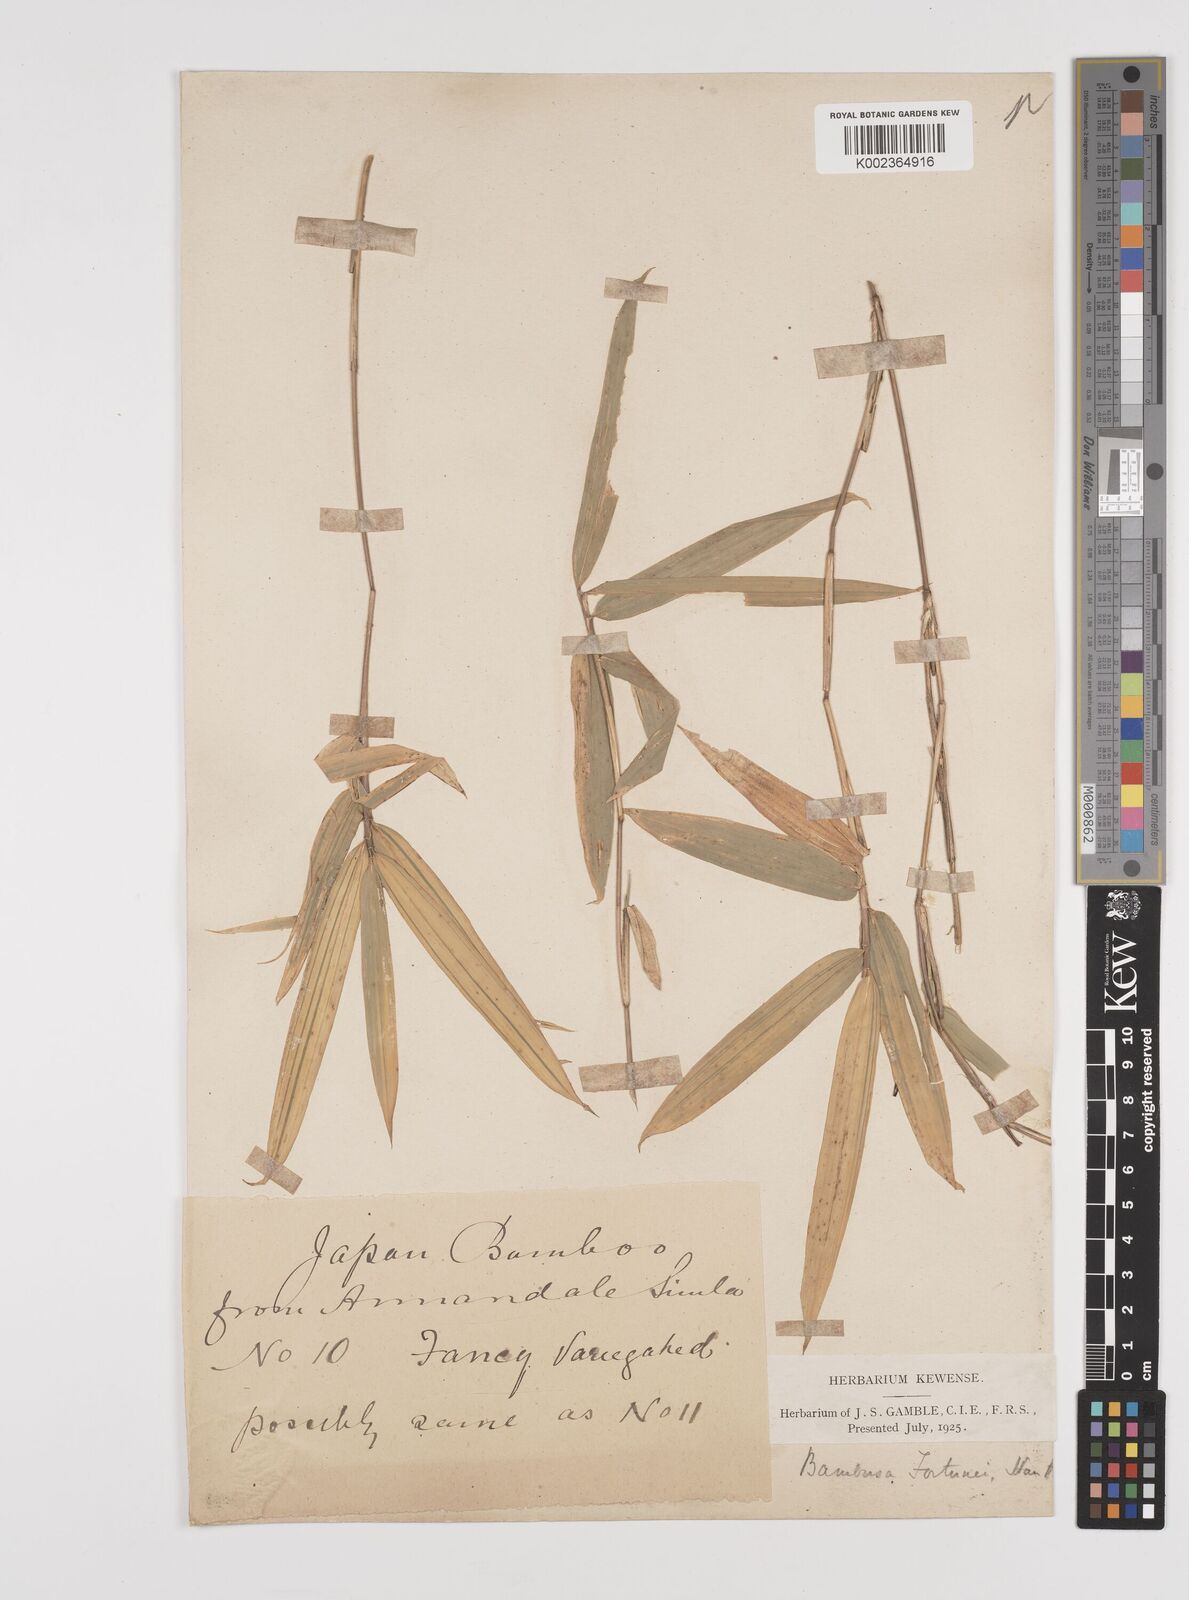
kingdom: Plantae
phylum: Tracheophyta
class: Liliopsida
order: Poales
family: Poaceae
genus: Pleioblastus
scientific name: Pleioblastus viridistriatus
